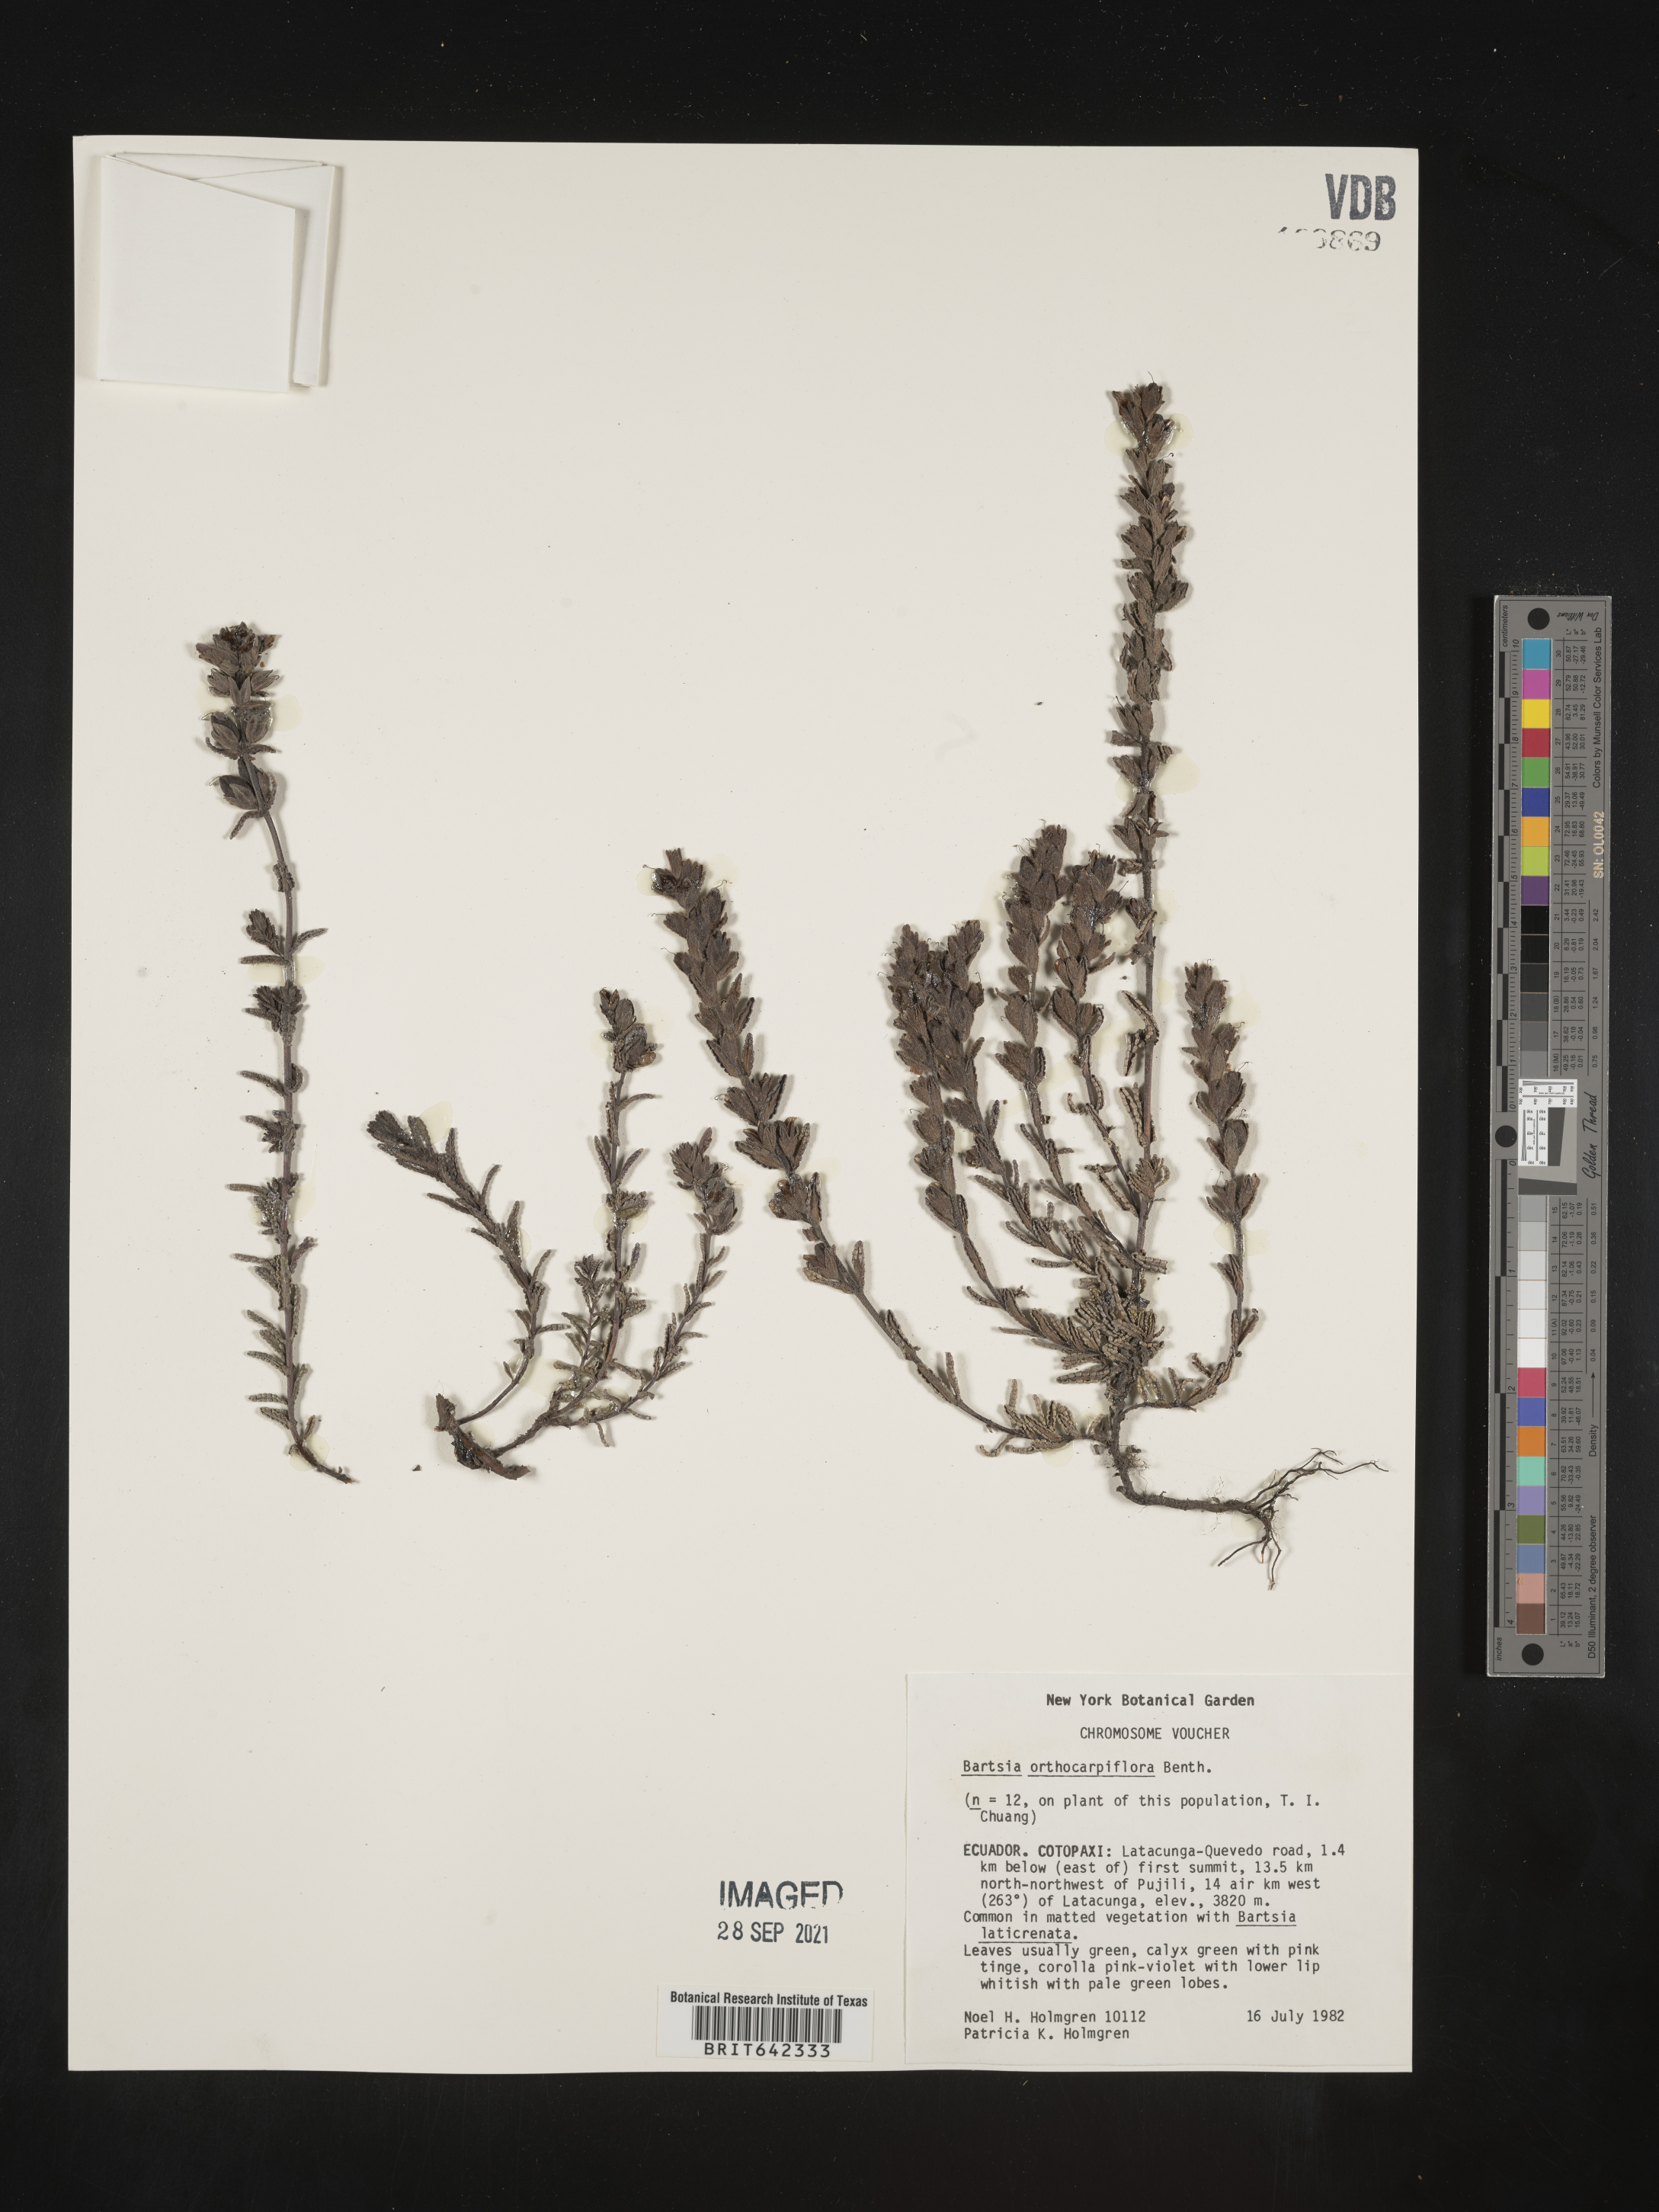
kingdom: Plantae
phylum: Tracheophyta
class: Magnoliopsida
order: Lamiales
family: Orobanchaceae
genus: Bartsia
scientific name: Bartsia
